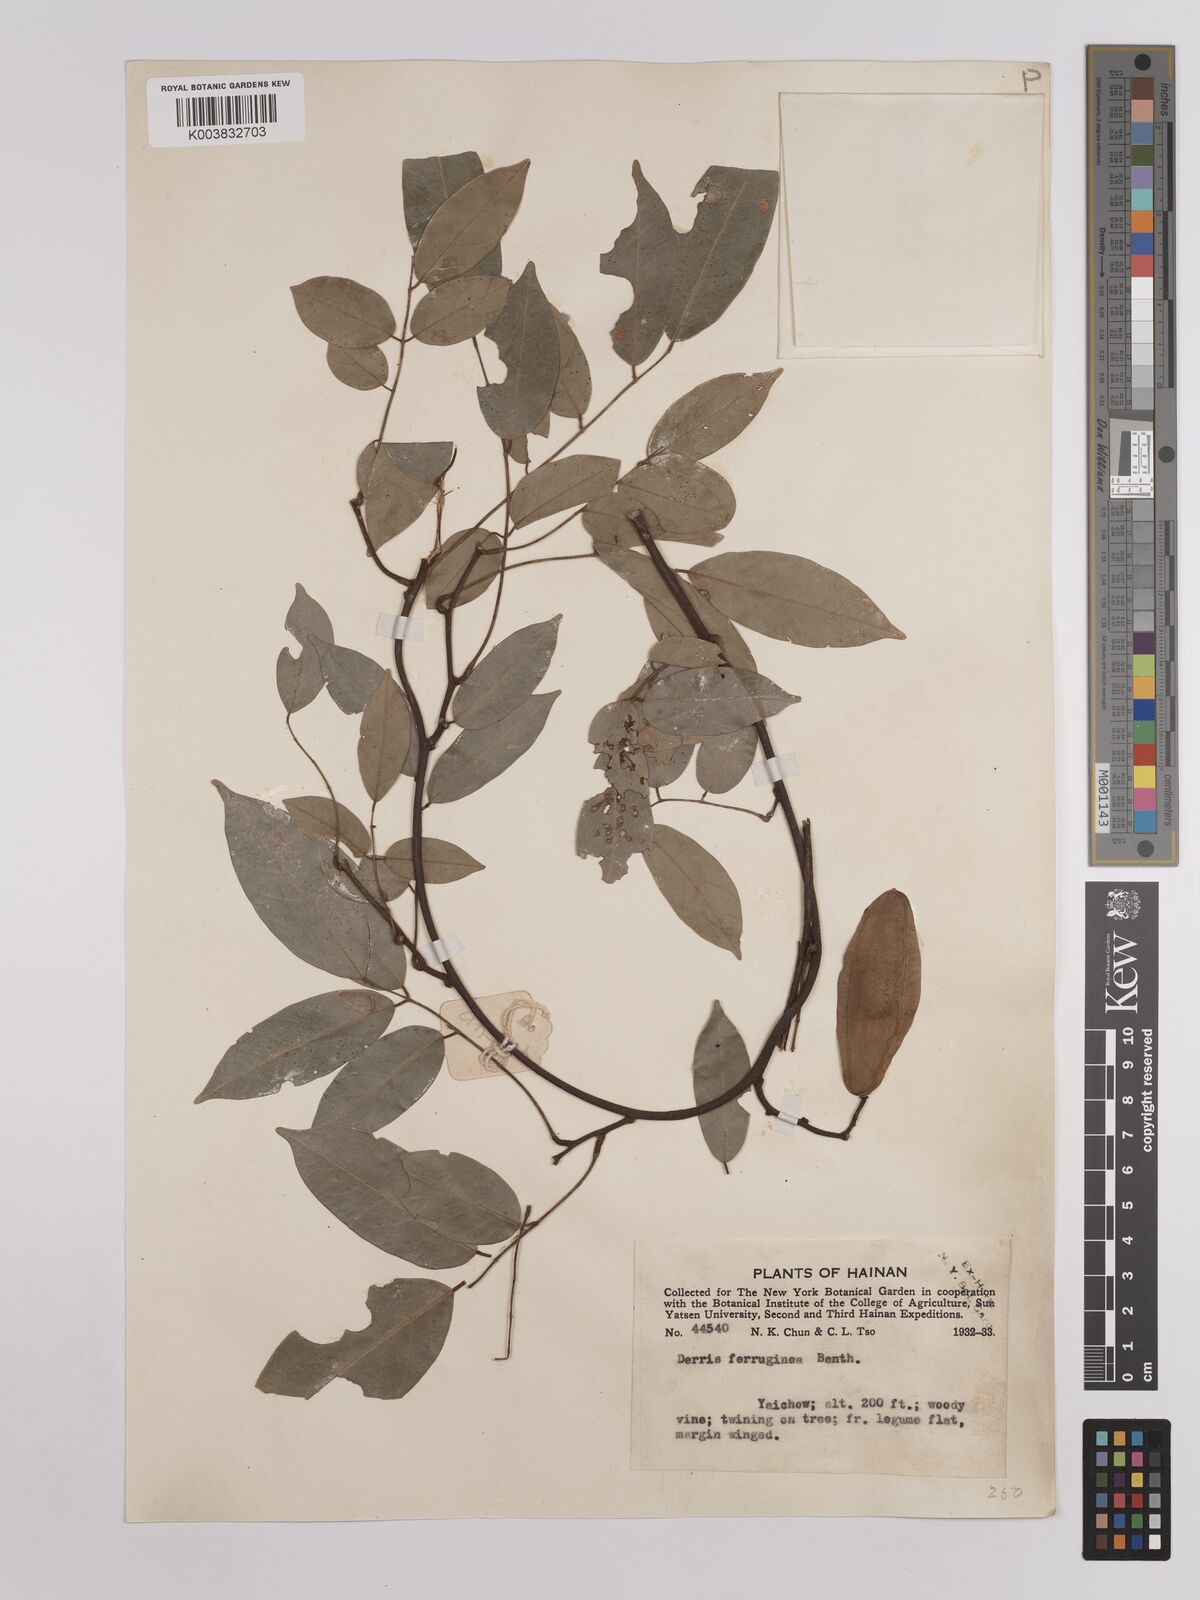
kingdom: Plantae
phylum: Tracheophyta
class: Magnoliopsida
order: Fabales
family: Fabaceae
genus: Derris
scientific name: Derris ferruginea
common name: Indian tubaroot
